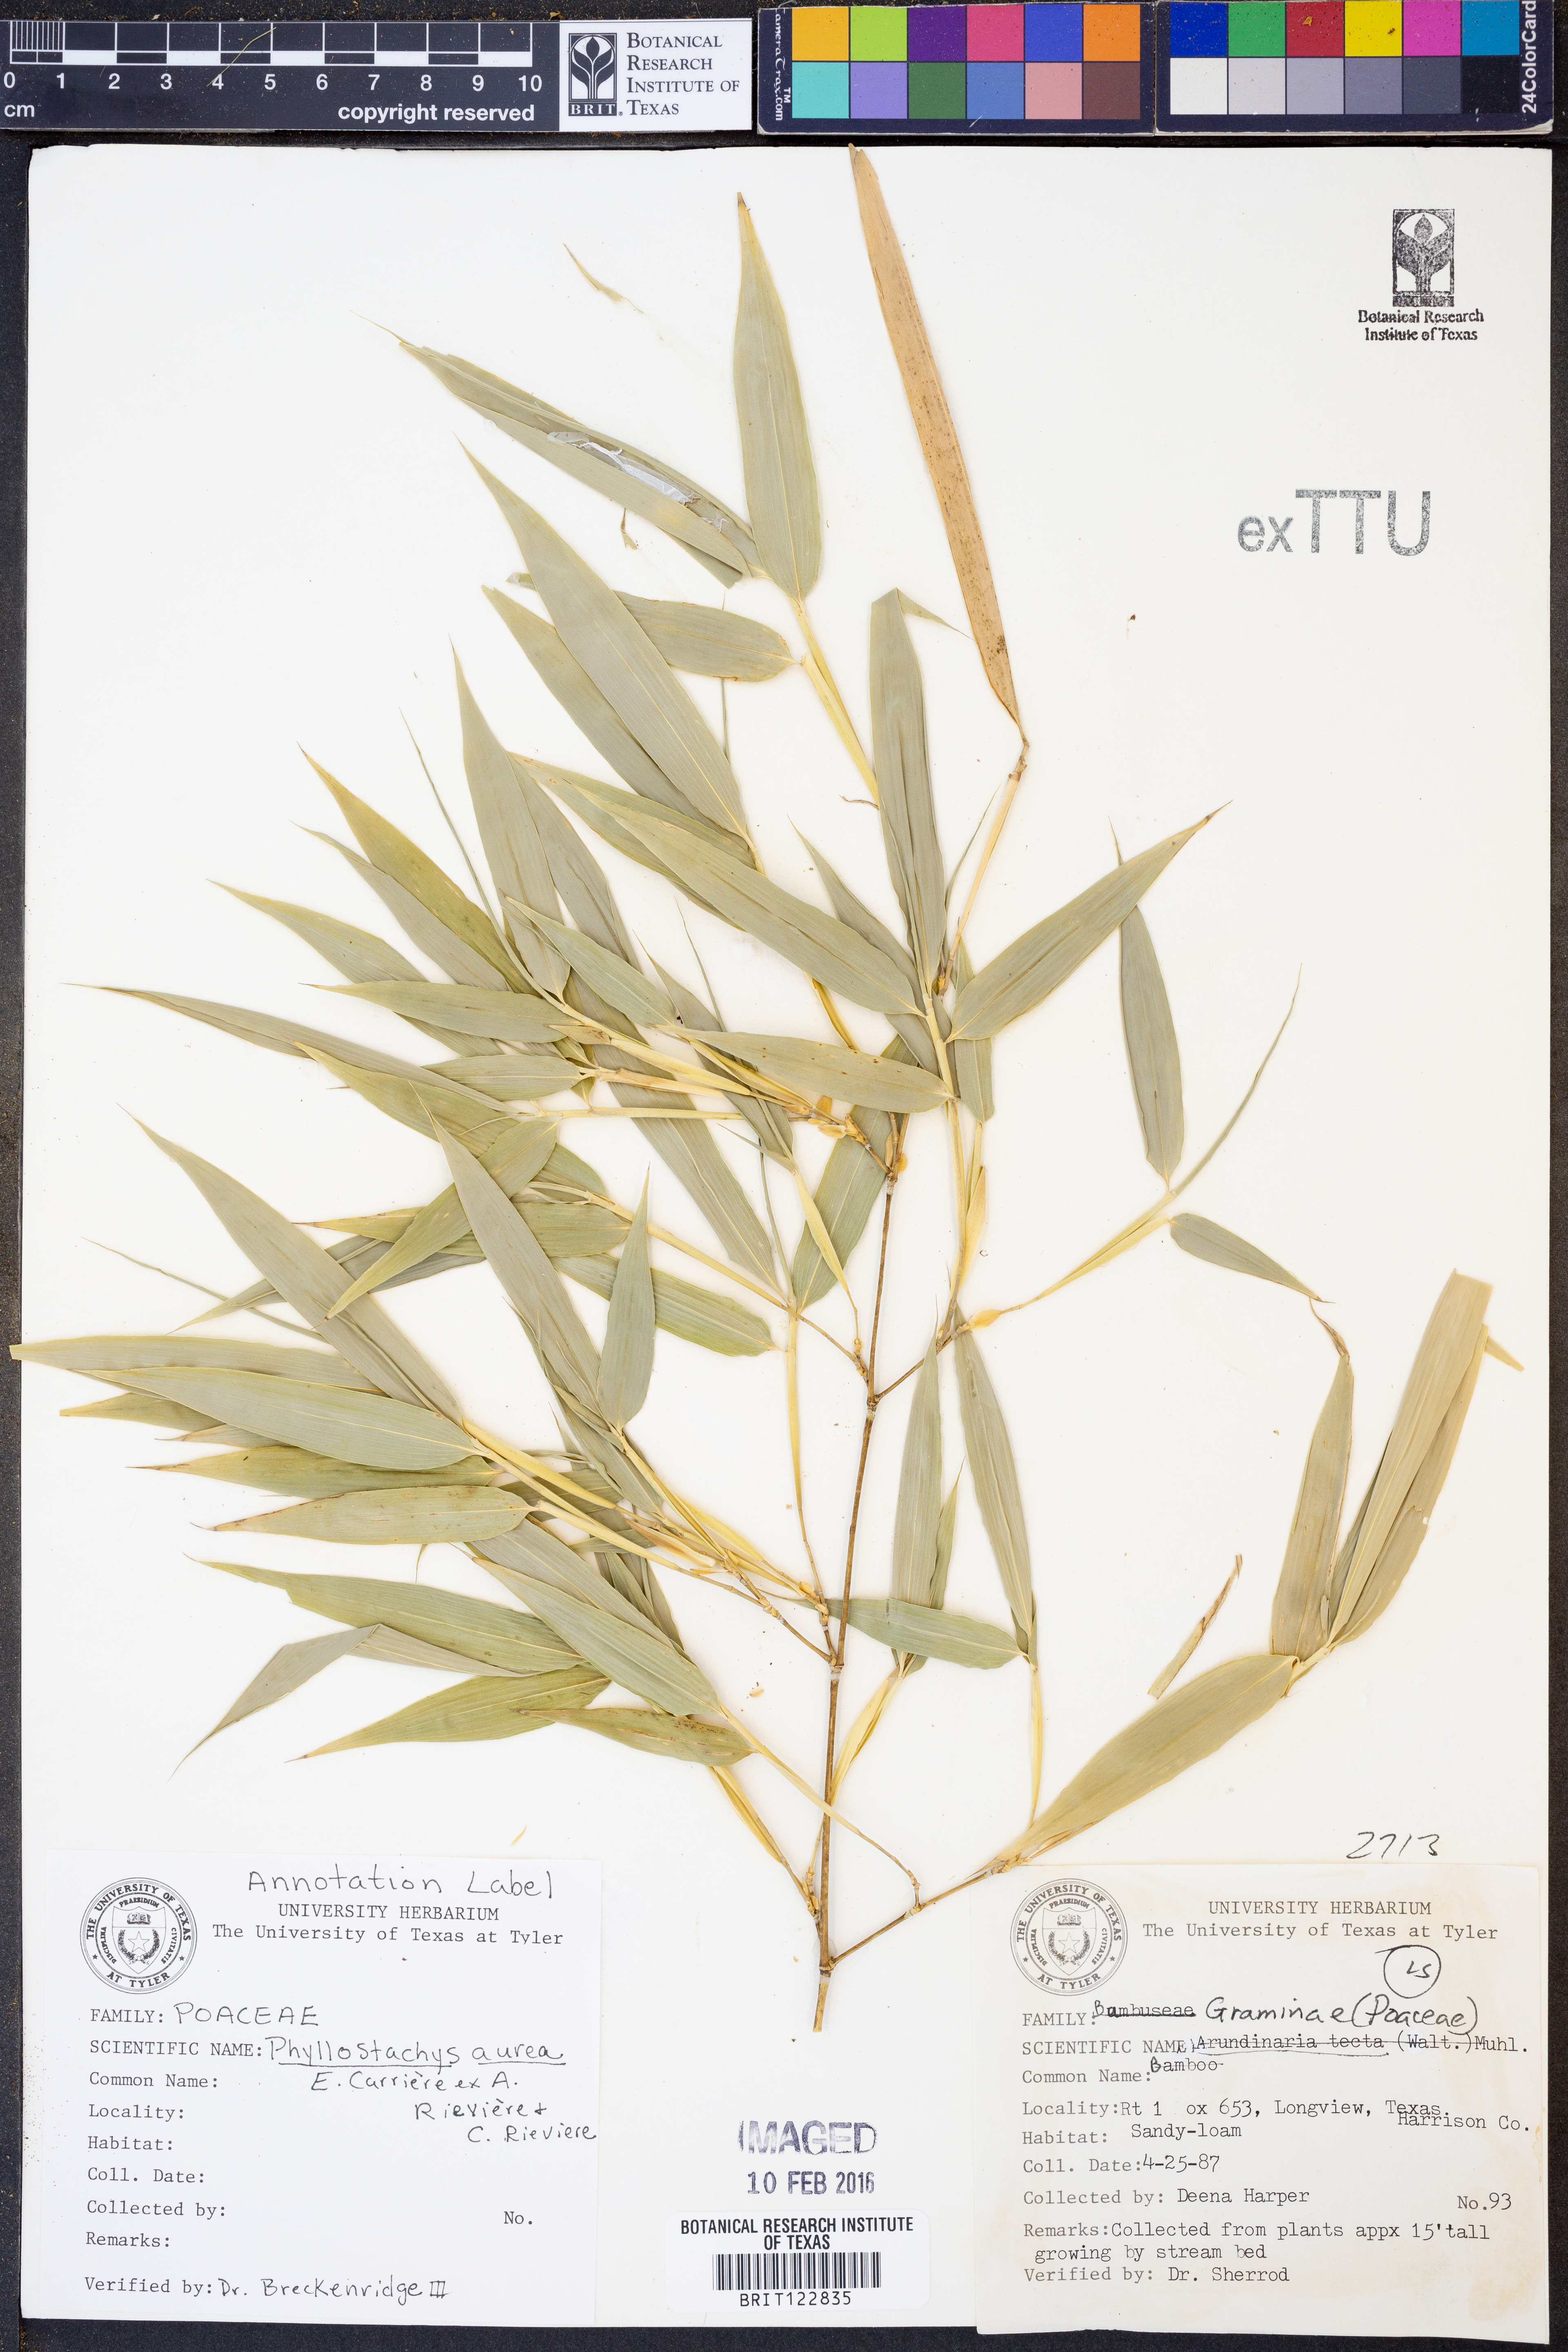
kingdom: Plantae
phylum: Tracheophyta
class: Liliopsida
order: Poales
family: Poaceae
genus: Phyllostachys
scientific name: Phyllostachys aurea
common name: Golden bamboo
